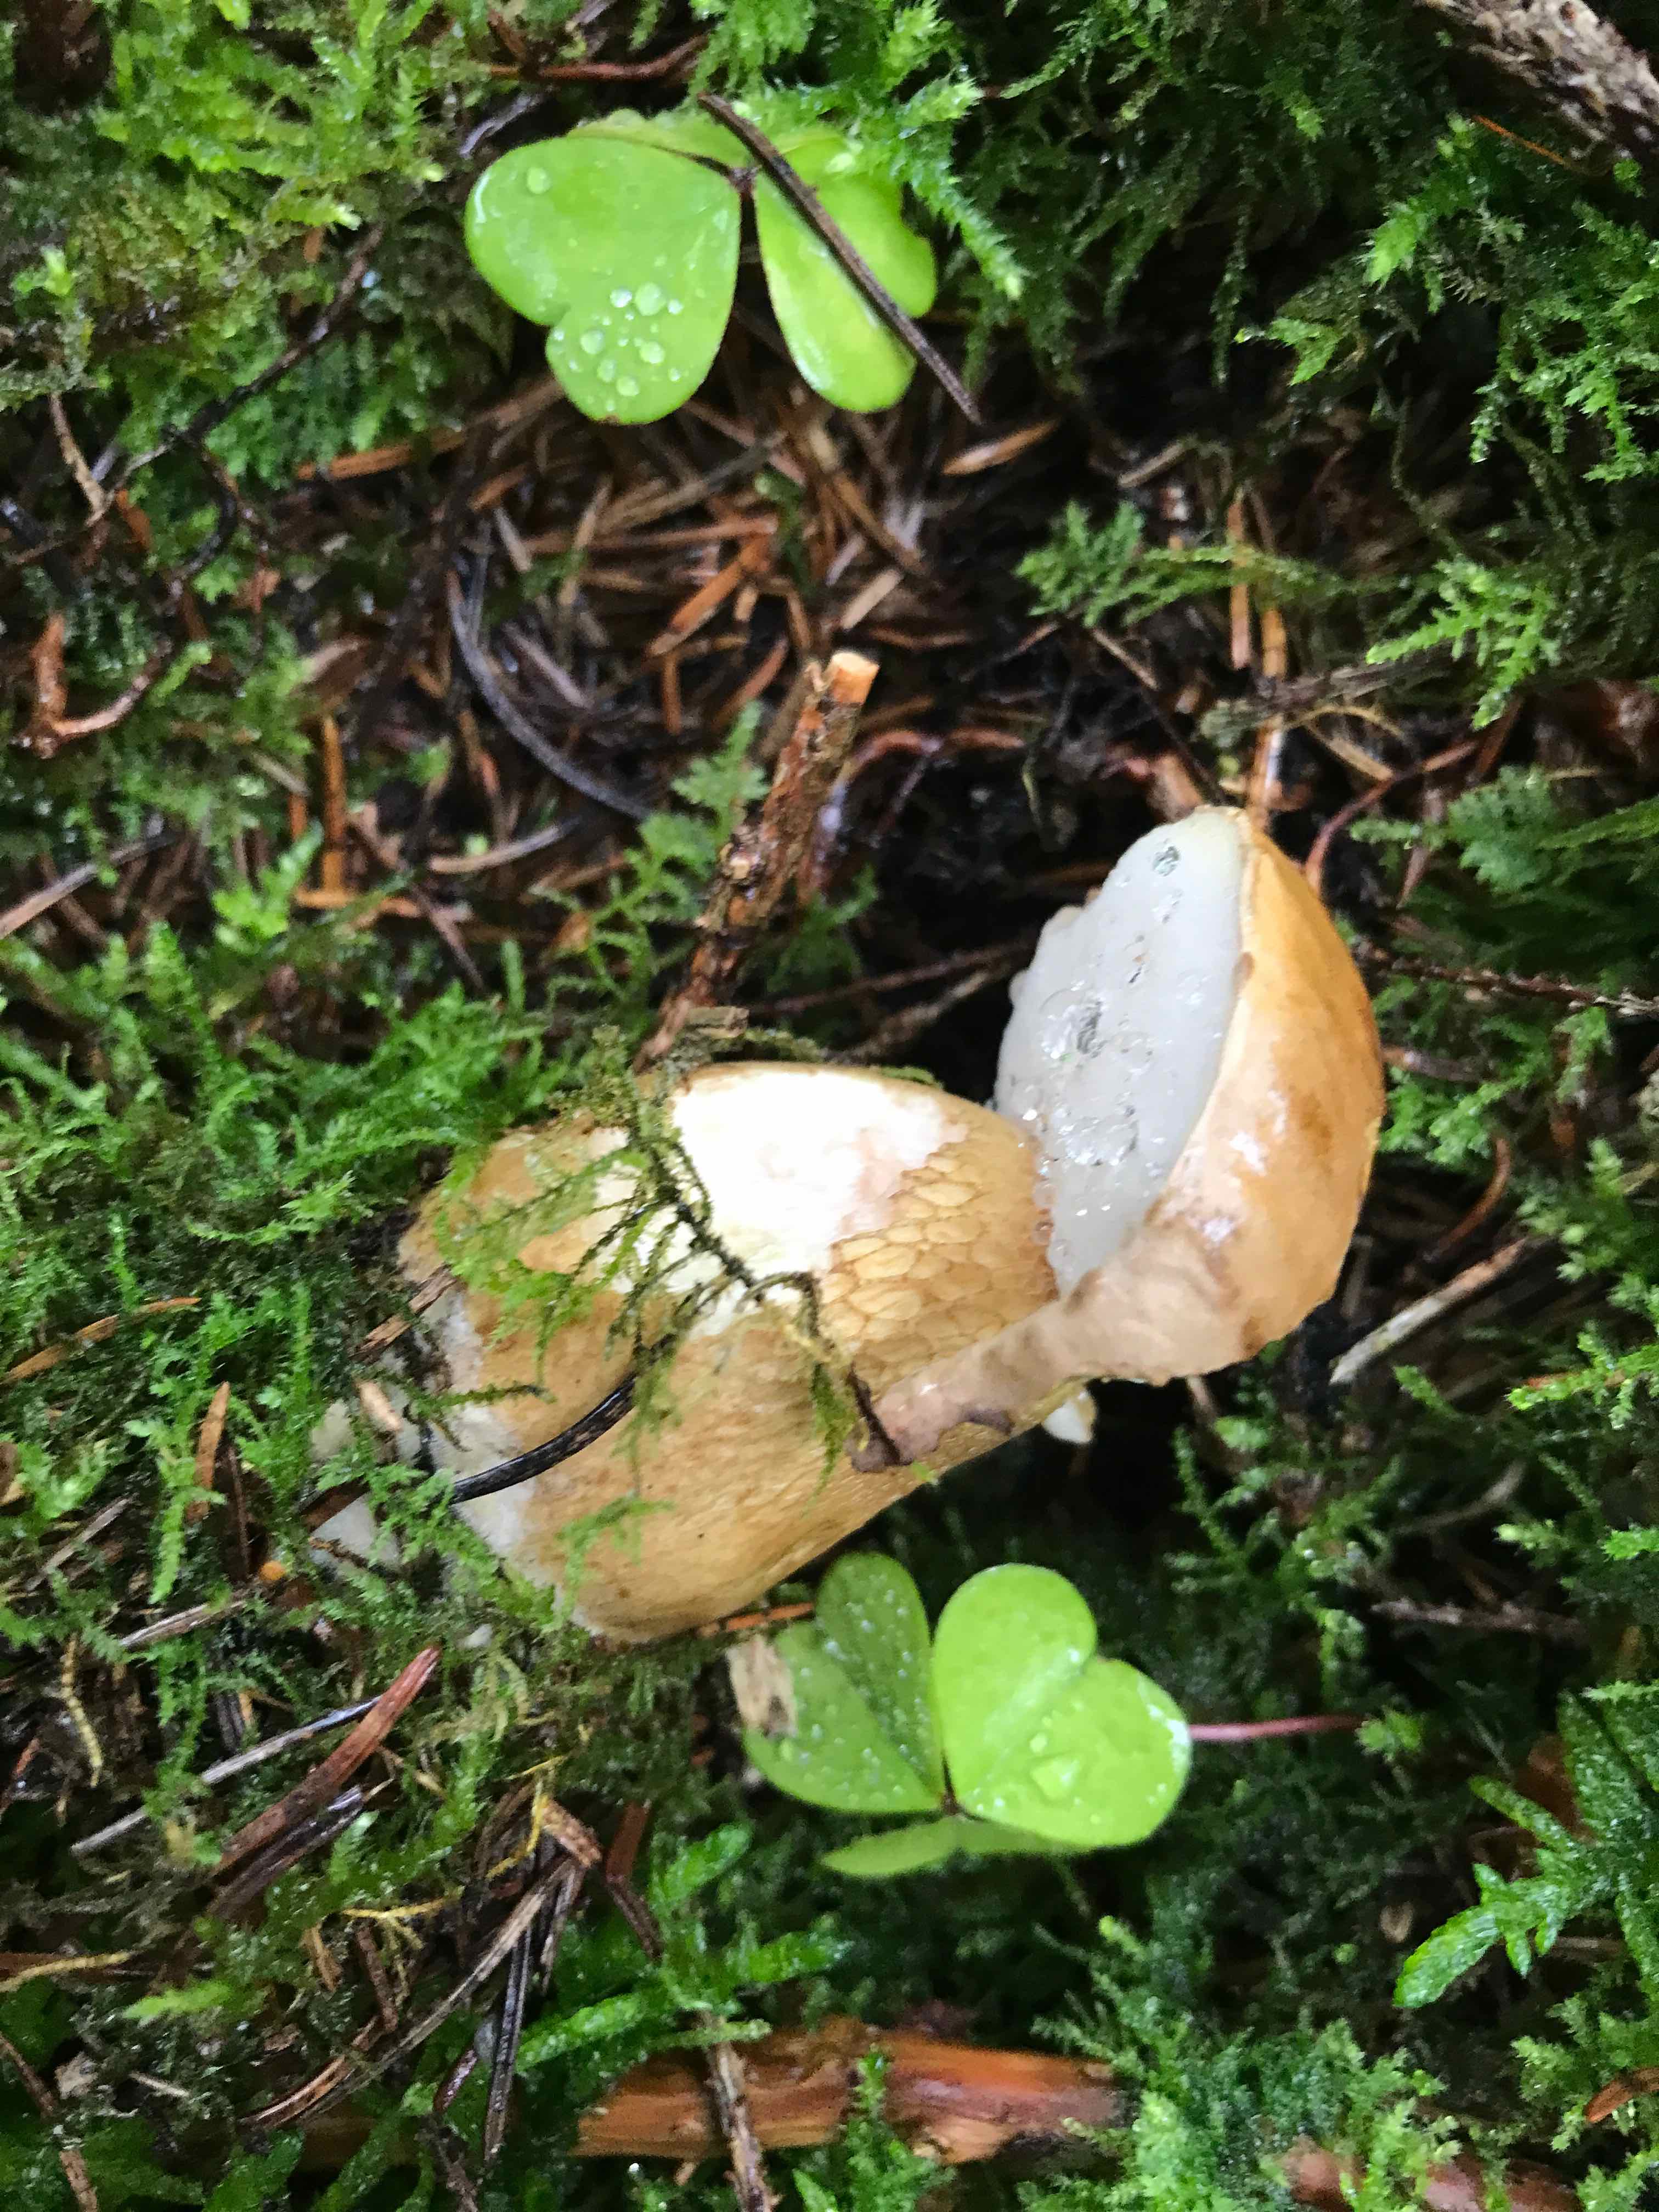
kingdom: Fungi
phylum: Basidiomycota
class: Agaricomycetes
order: Boletales
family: Boletaceae
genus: Tylopilus
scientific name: Tylopilus felleus
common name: galderørhat
